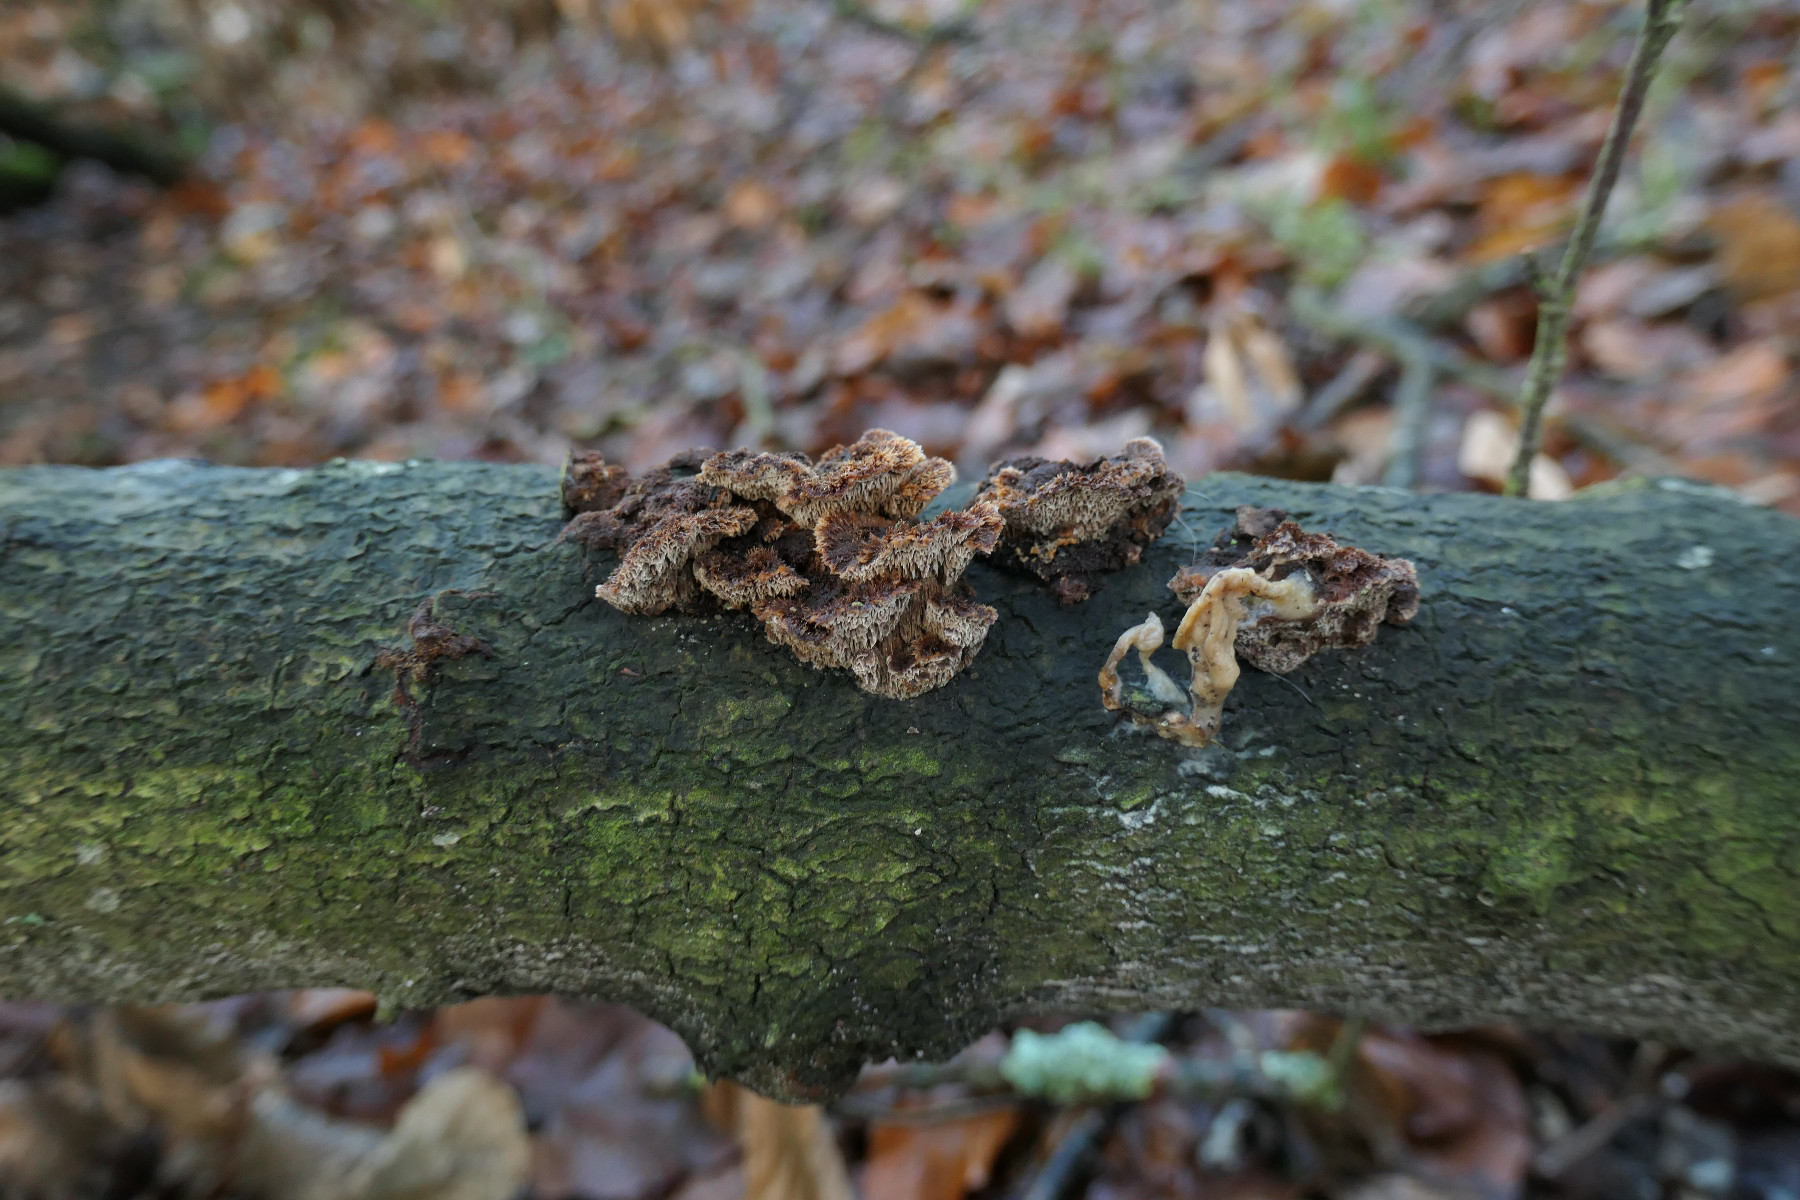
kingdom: Fungi
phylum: Basidiomycota
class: Agaricomycetes
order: Hymenochaetales
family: Hymenochaetaceae
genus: Mensularia
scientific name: Mensularia nodulosa
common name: bøge-spejlporesvamp
